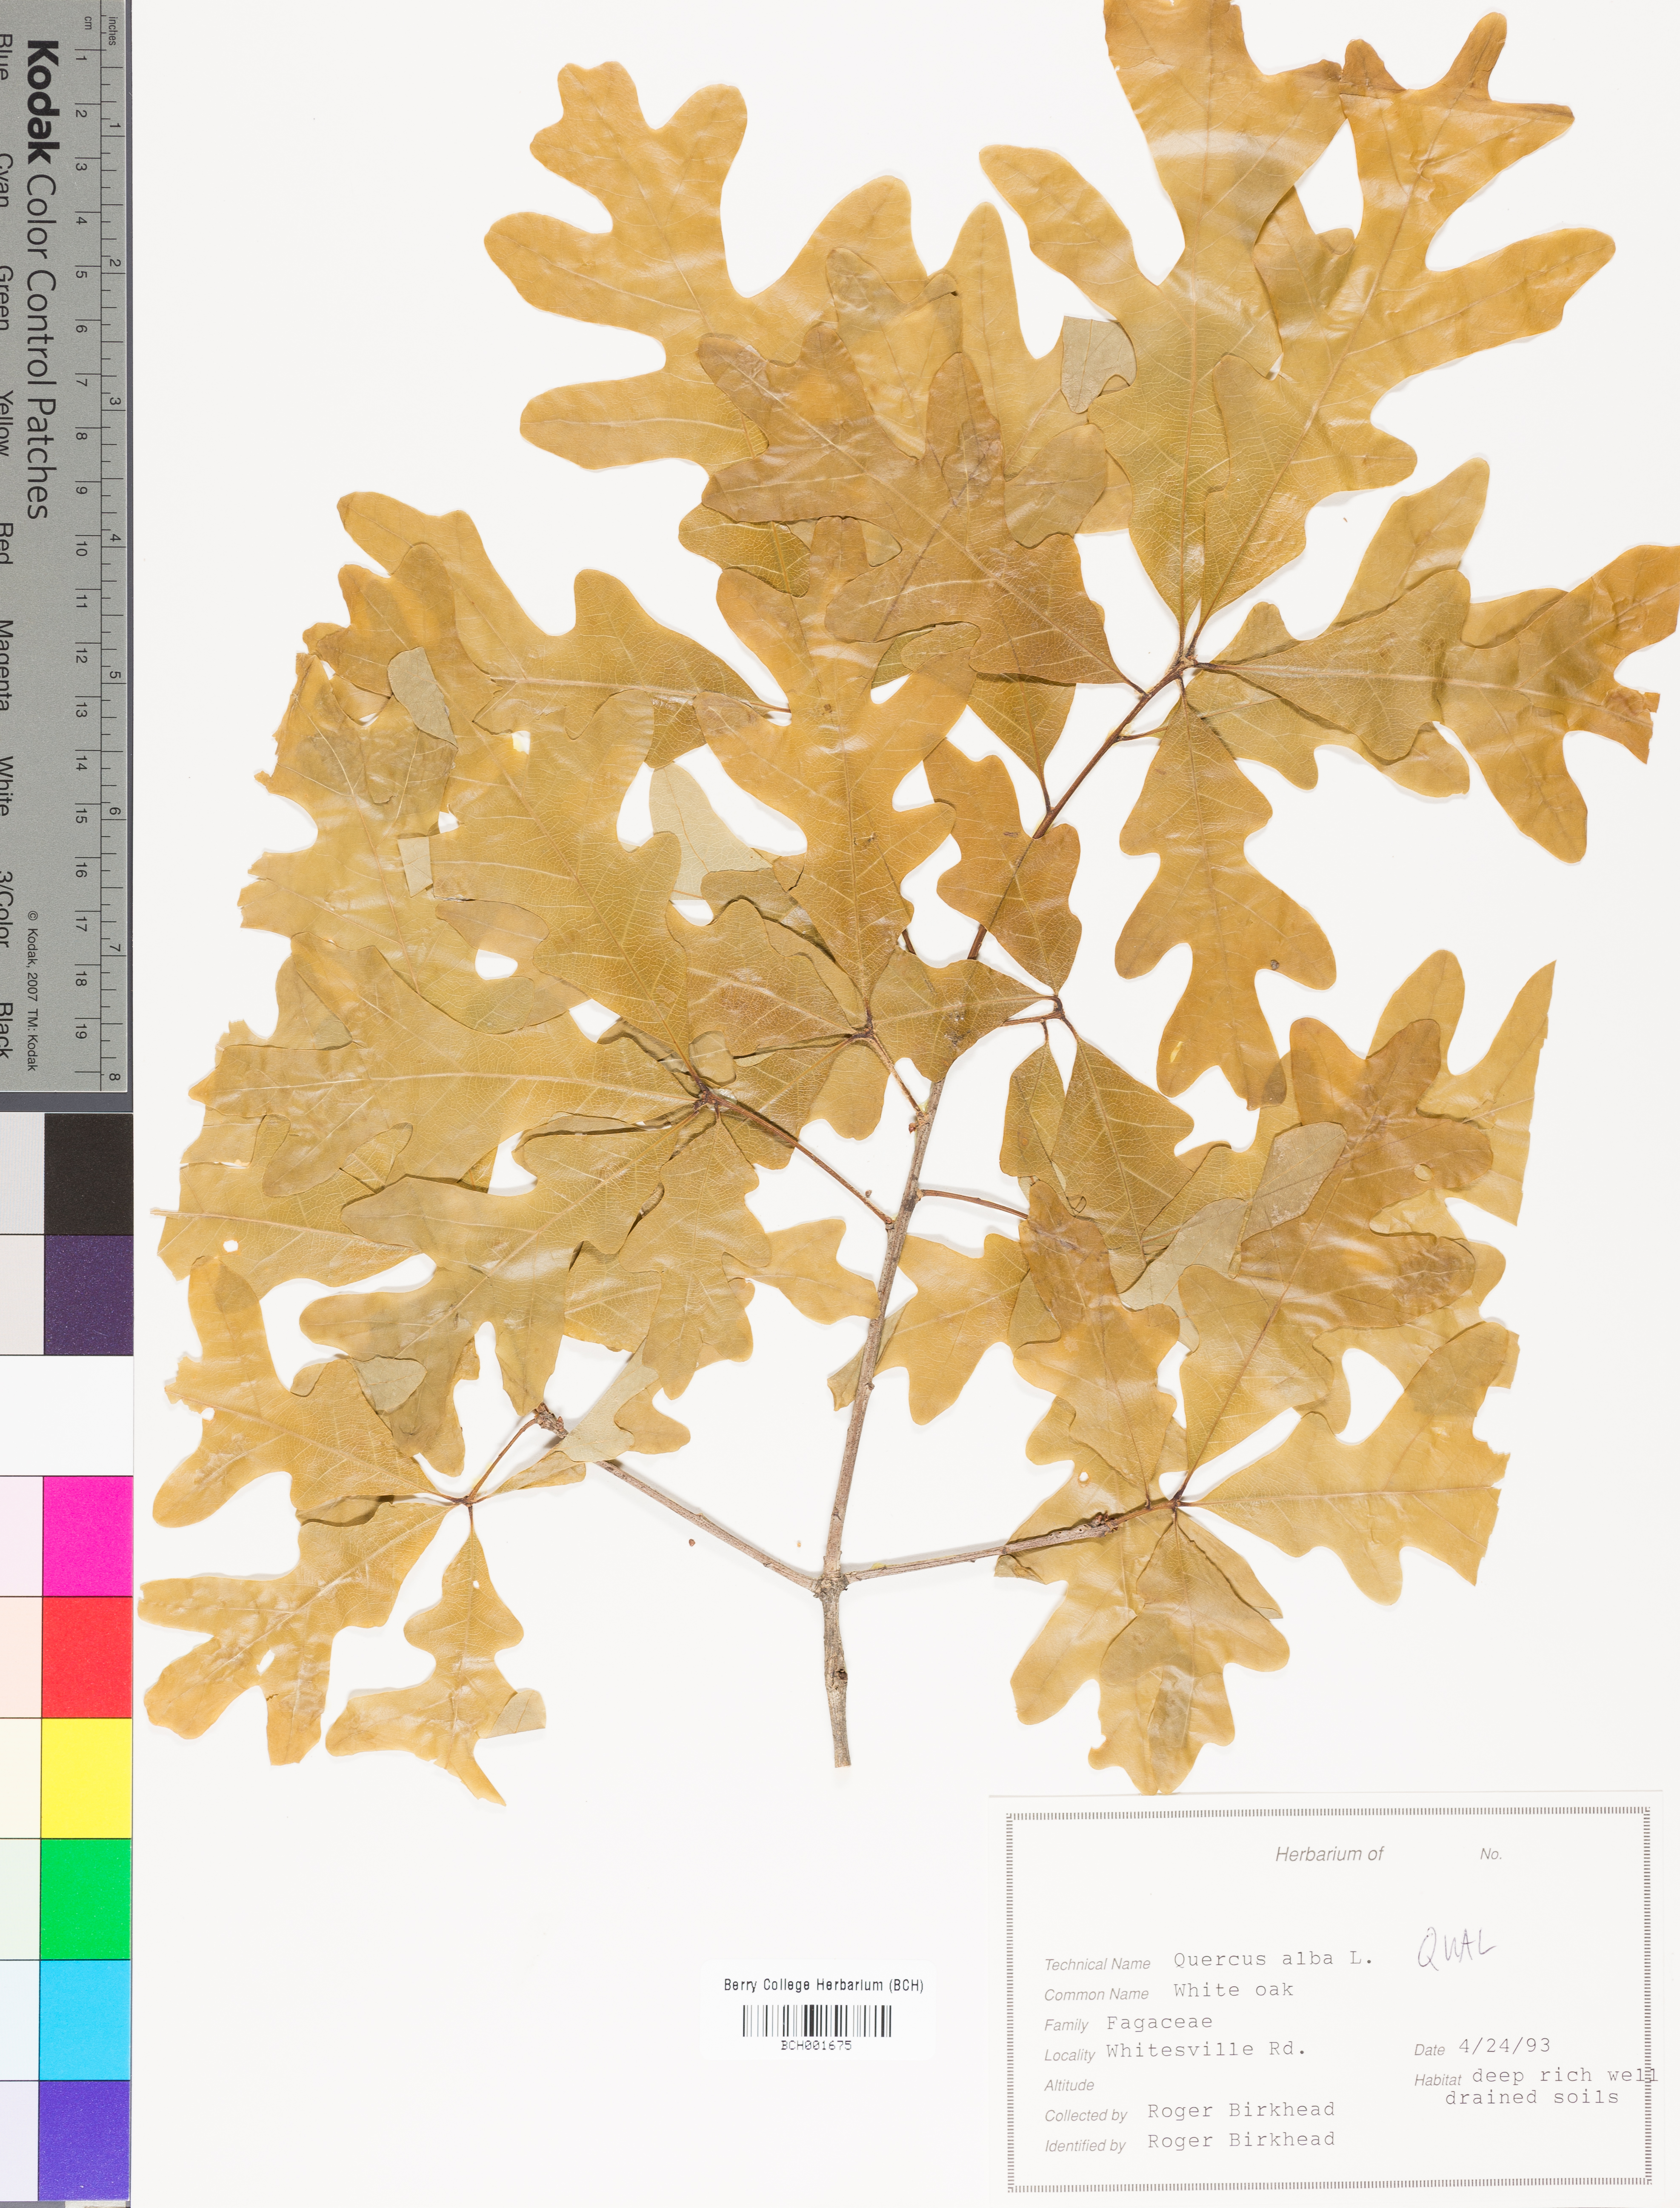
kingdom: Plantae
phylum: Tracheophyta
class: Magnoliopsida
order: Fagales
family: Fagaceae
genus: Quercus
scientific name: Quercus alba
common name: White oak
